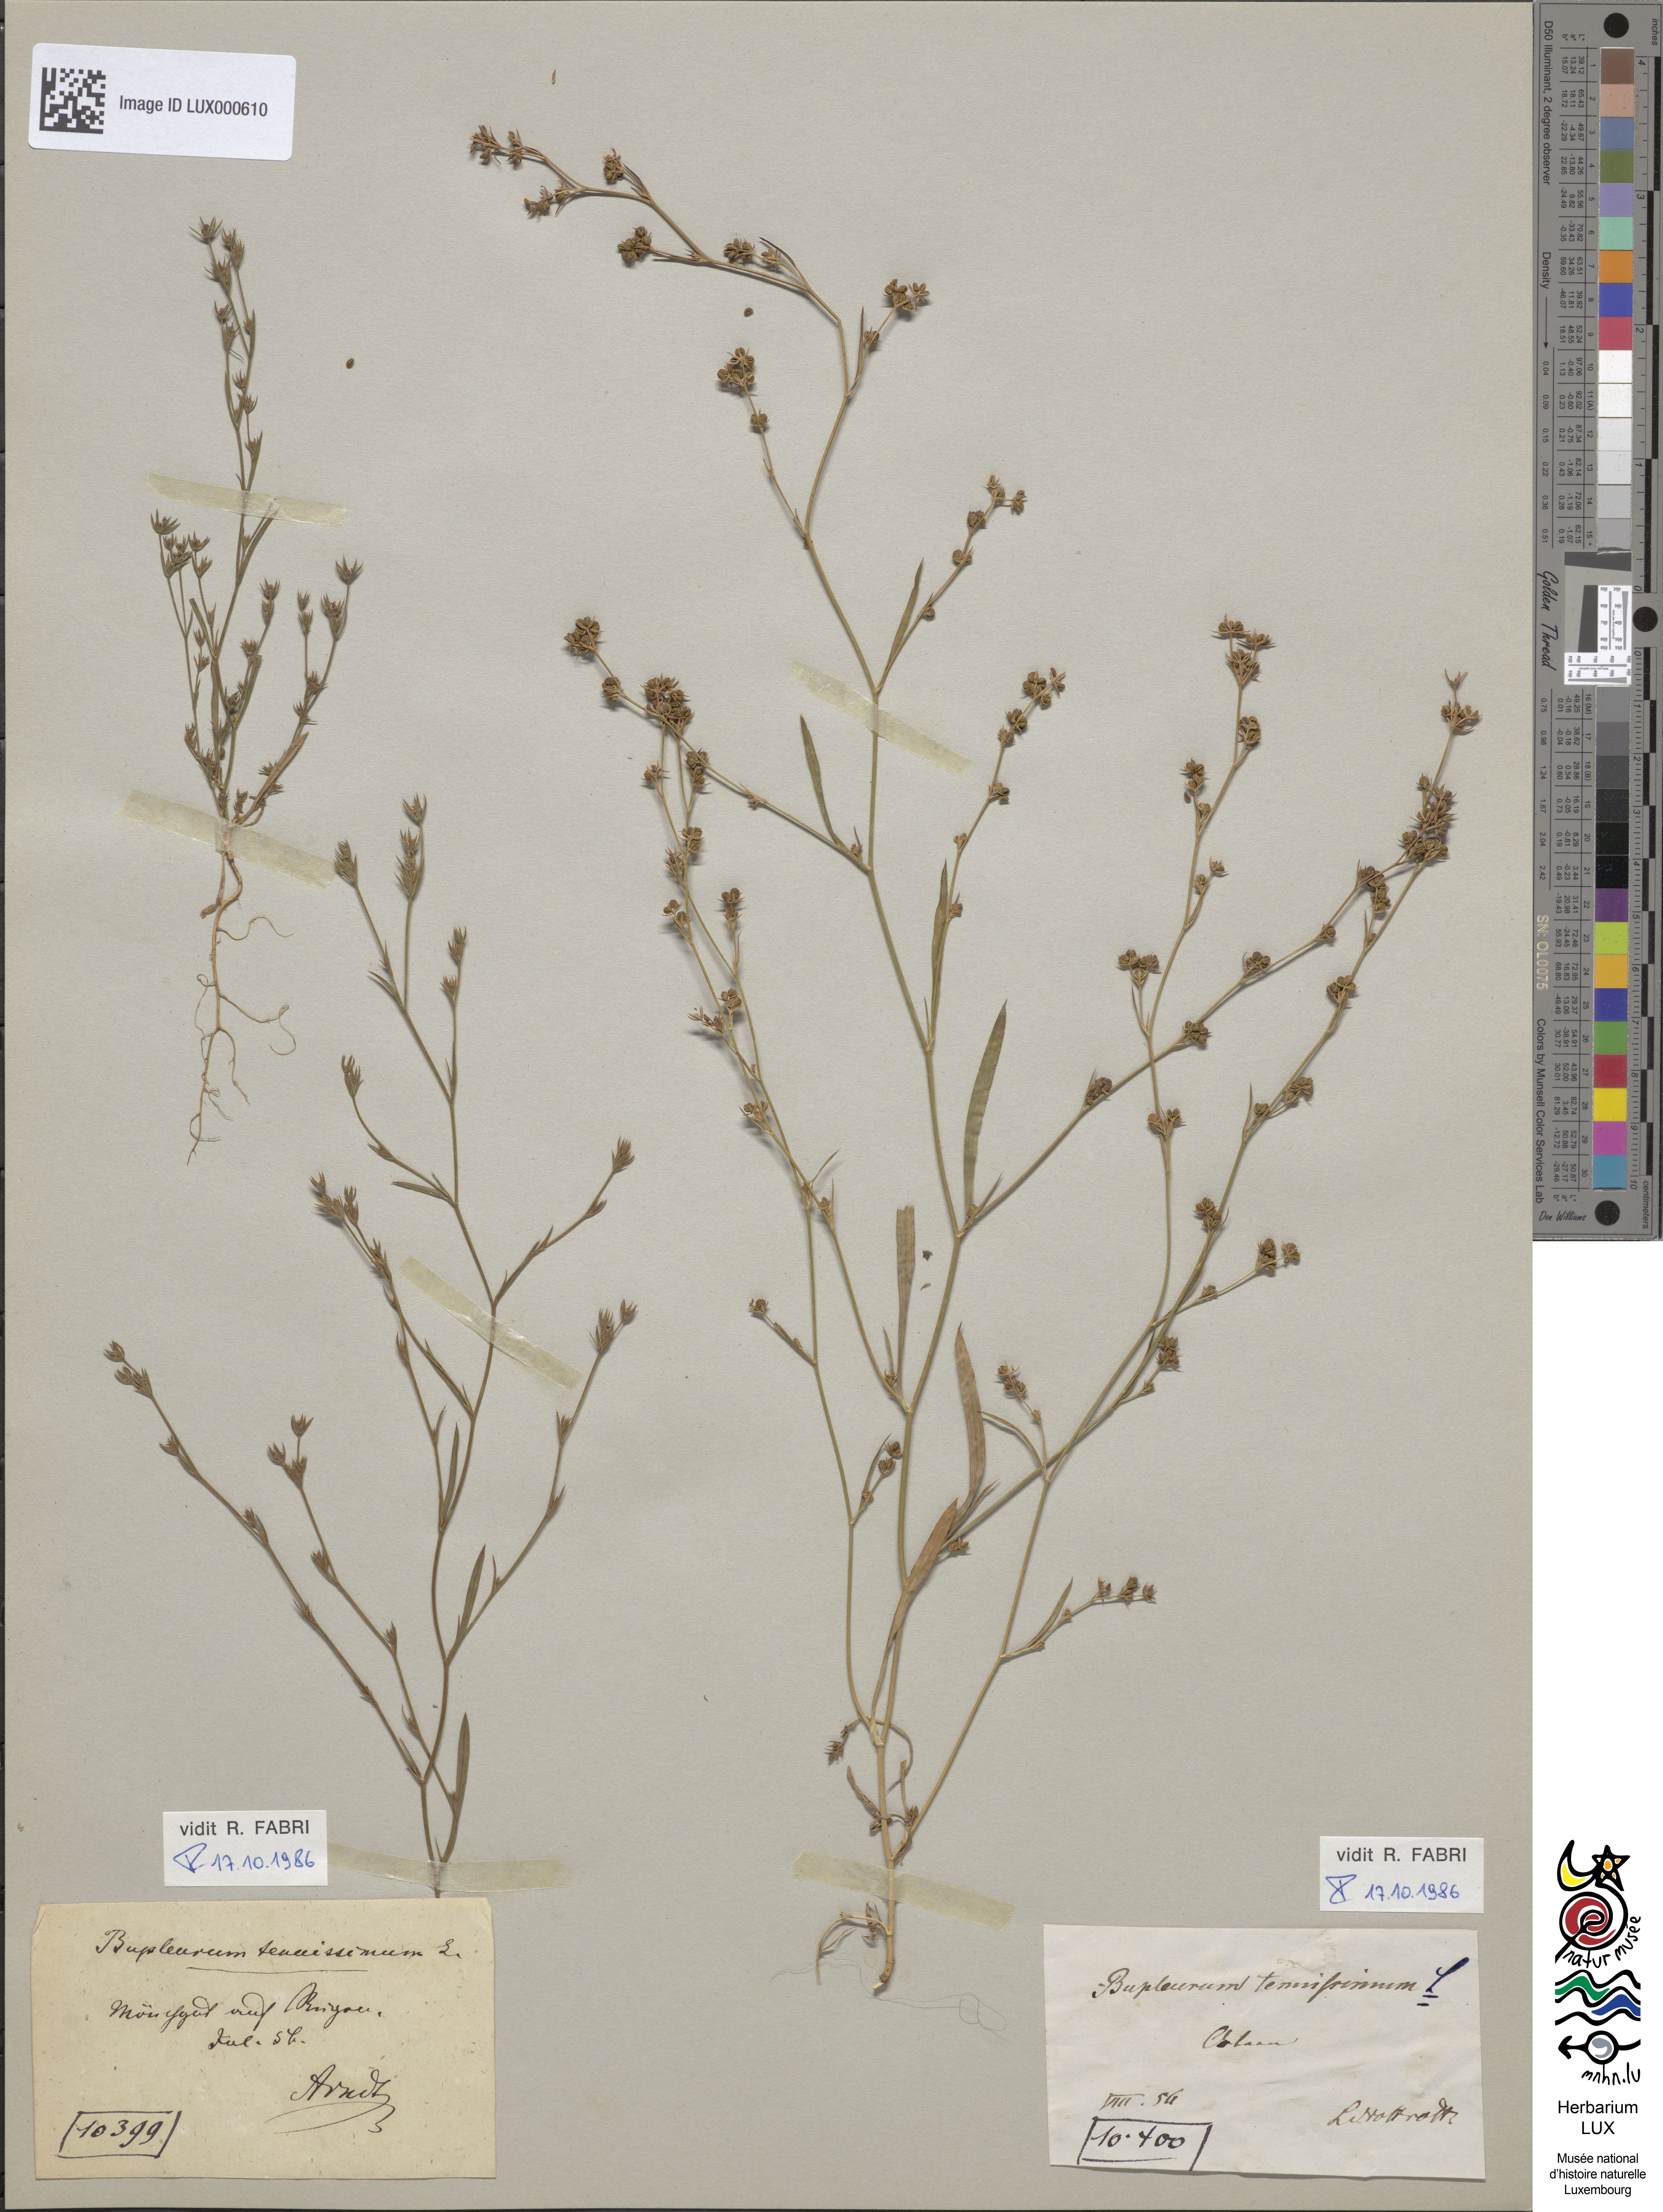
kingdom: Plantae
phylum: Tracheophyta
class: Magnoliopsida
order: Apiales
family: Apiaceae
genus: Bupleurum
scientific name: Bupleurum tenuissimum
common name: Slender hare's-ear
